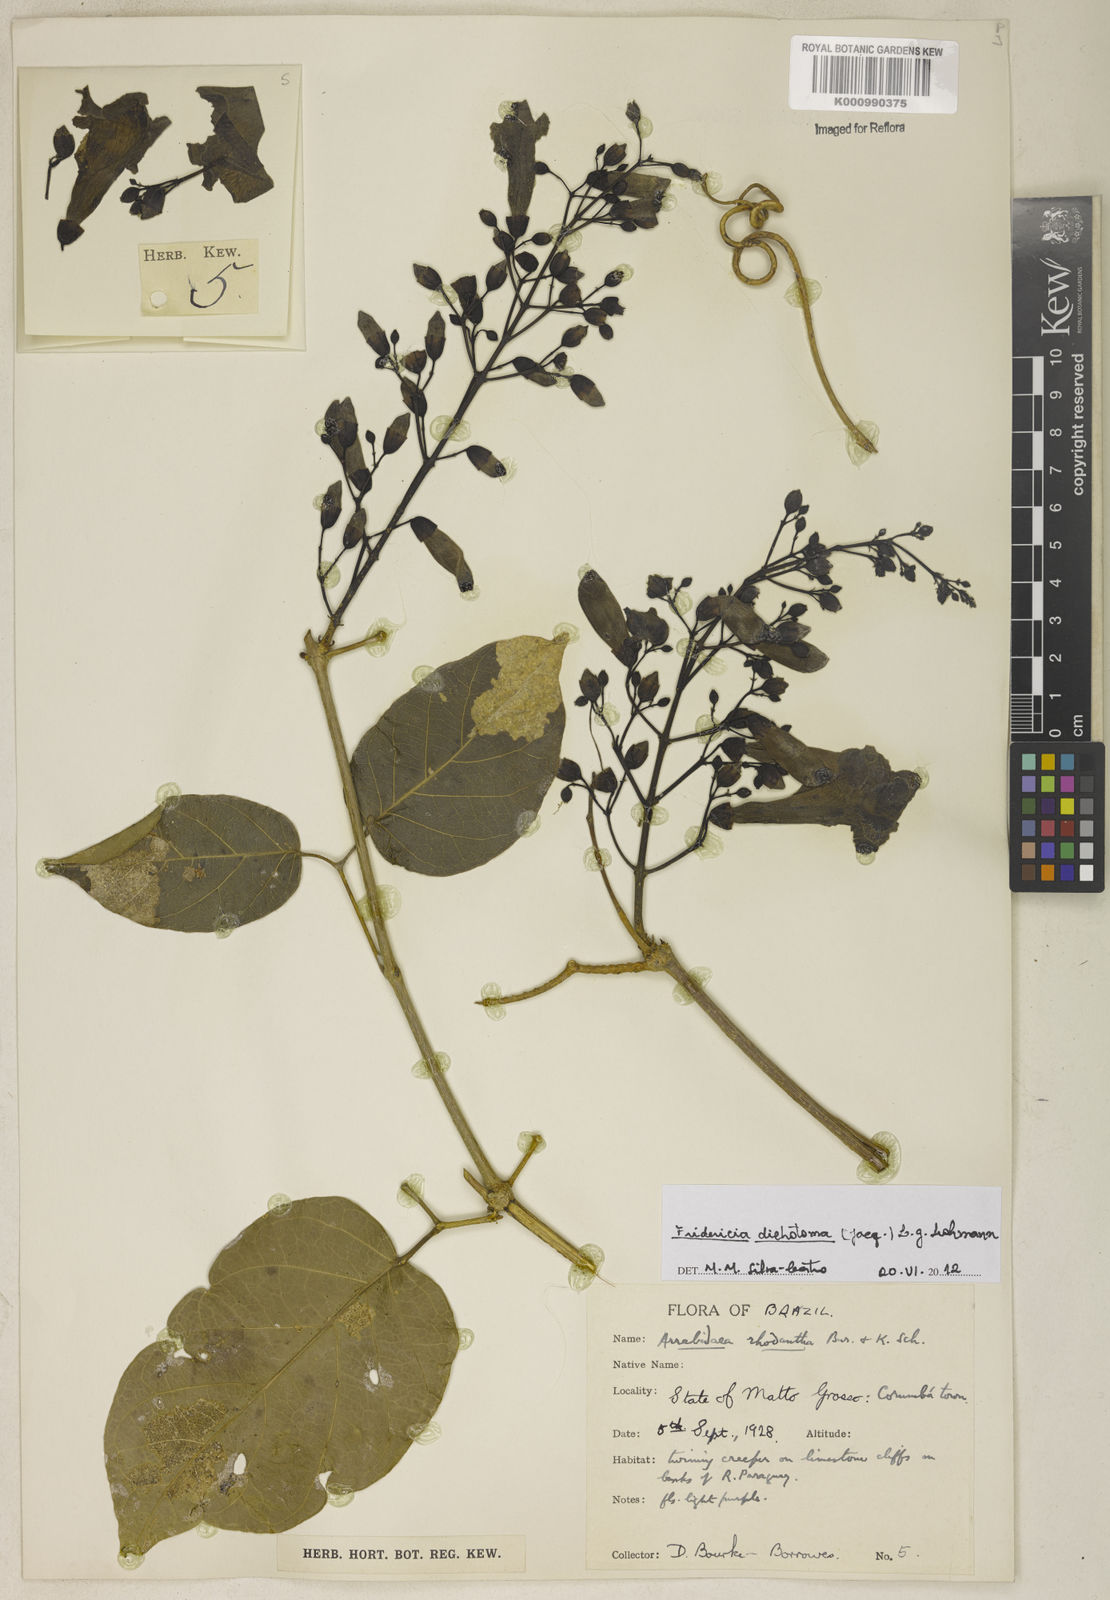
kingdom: Plantae
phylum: Tracheophyta
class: Magnoliopsida
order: Lamiales
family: Bignoniaceae
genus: Tanaecium
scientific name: Tanaecium dichotomum
